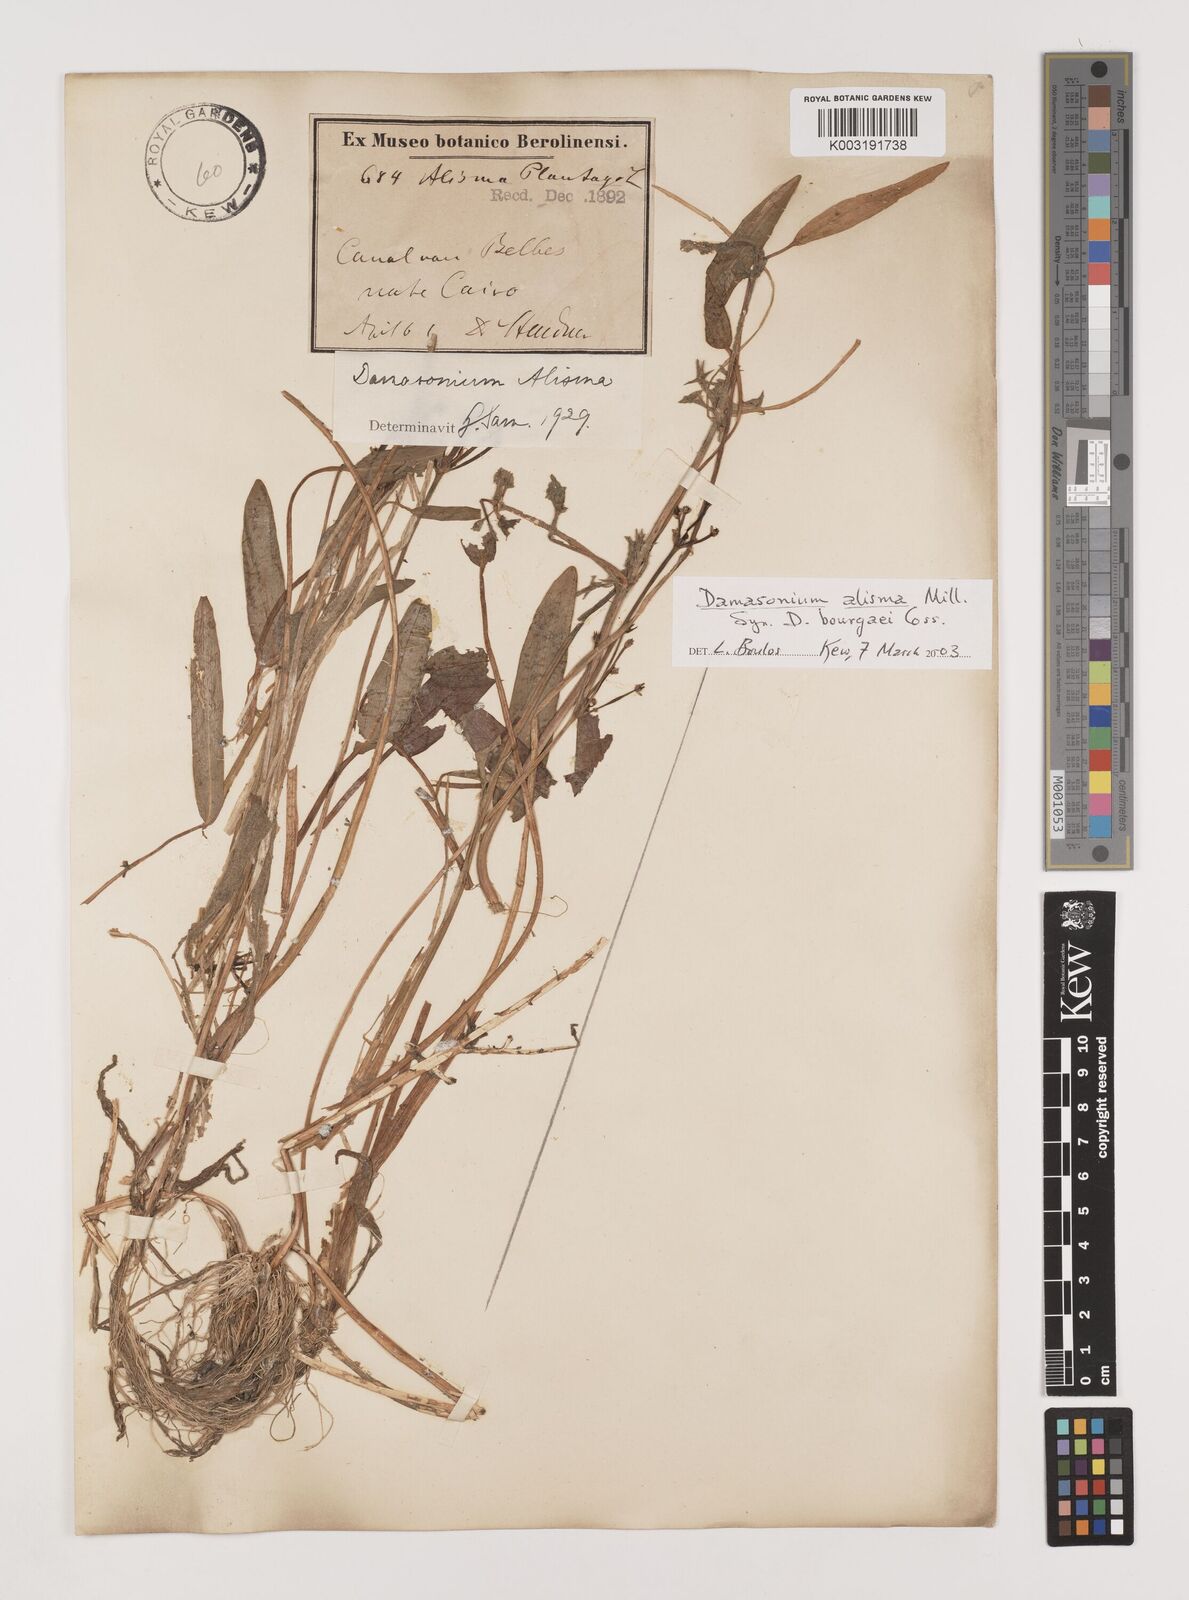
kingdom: Plantae
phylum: Tracheophyta
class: Liliopsida
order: Alismatales
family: Alismataceae
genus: Damasonium
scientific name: Damasonium alisma
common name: Starfruit
